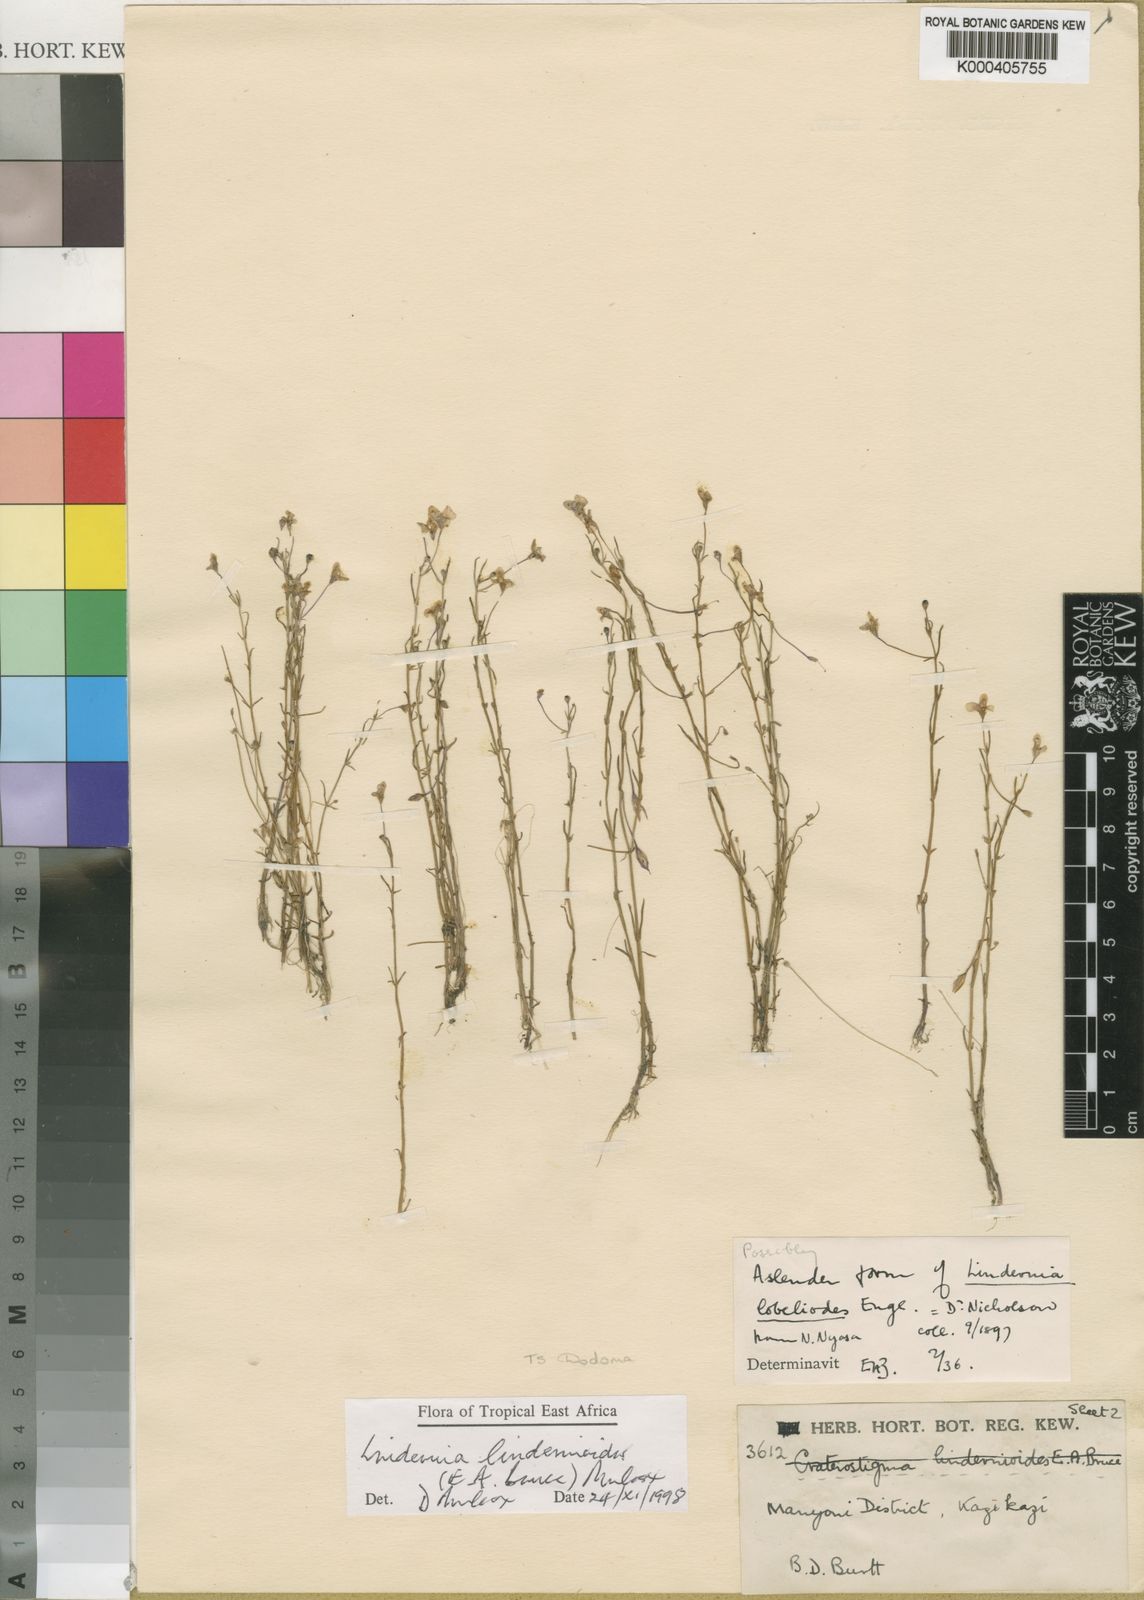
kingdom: Plantae
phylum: Tracheophyta
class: Magnoliopsida
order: Lamiales
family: Linderniaceae
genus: Craterostigma
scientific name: Craterostigma lindernioides
